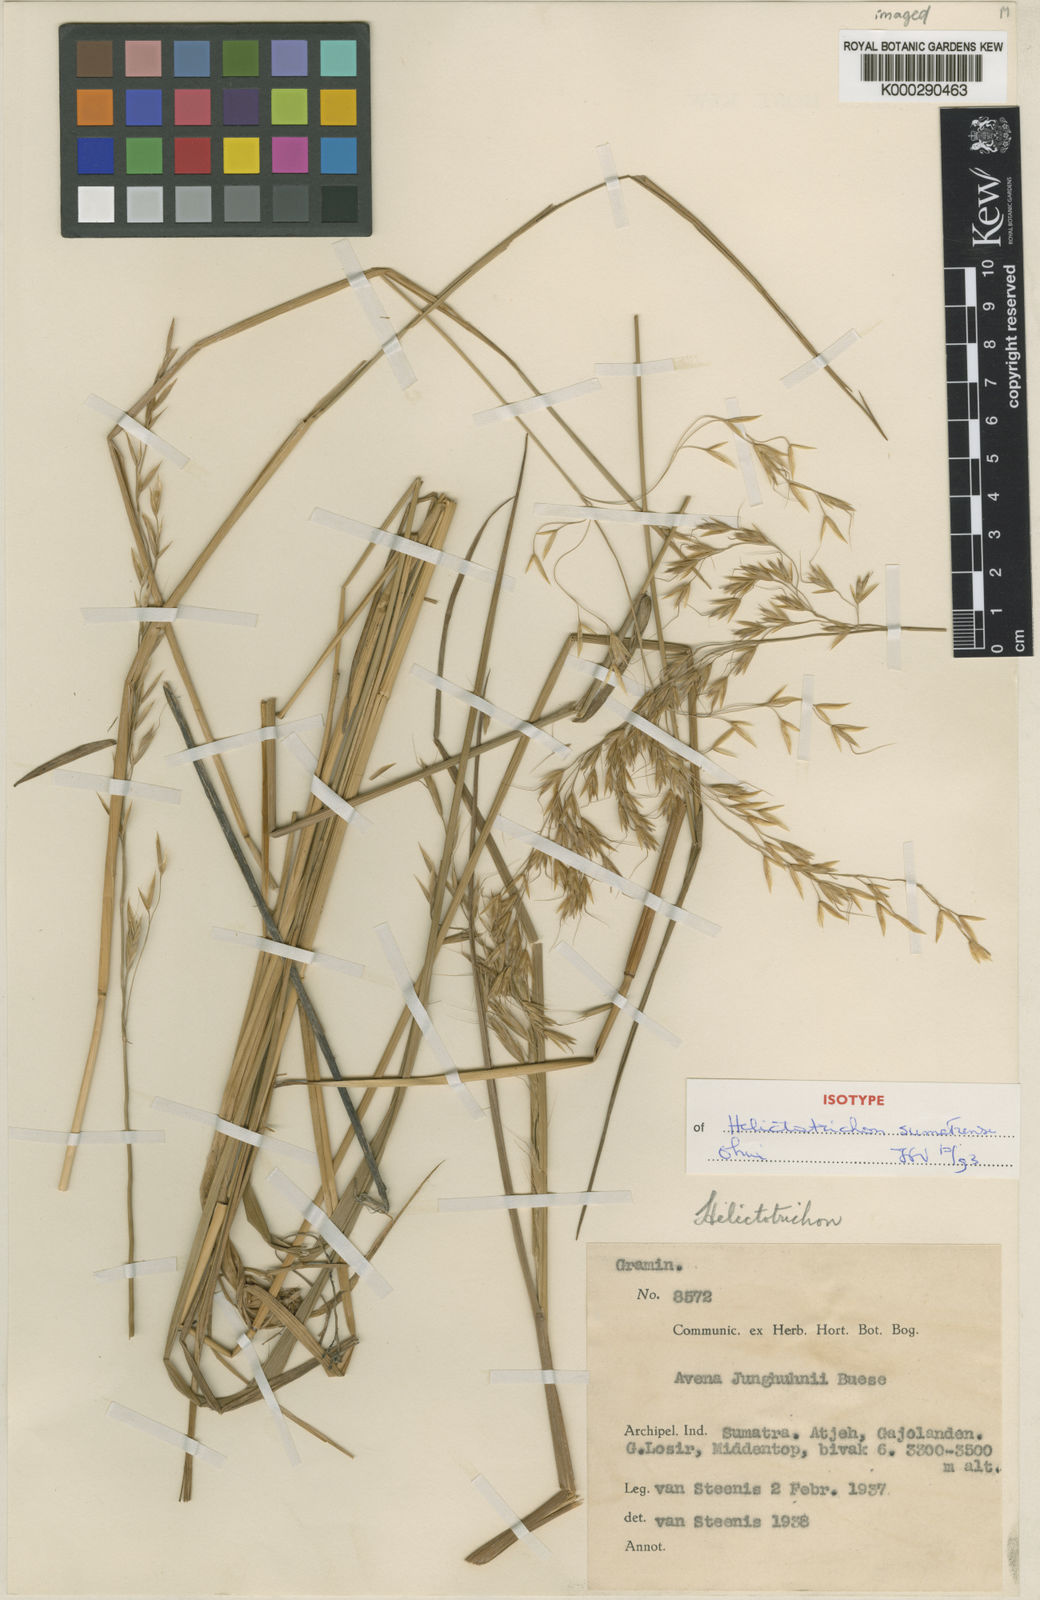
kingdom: Plantae
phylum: Tracheophyta
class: Liliopsida
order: Poales
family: Poaceae
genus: Helictotrichon
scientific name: Helictotrichon sumatrense
